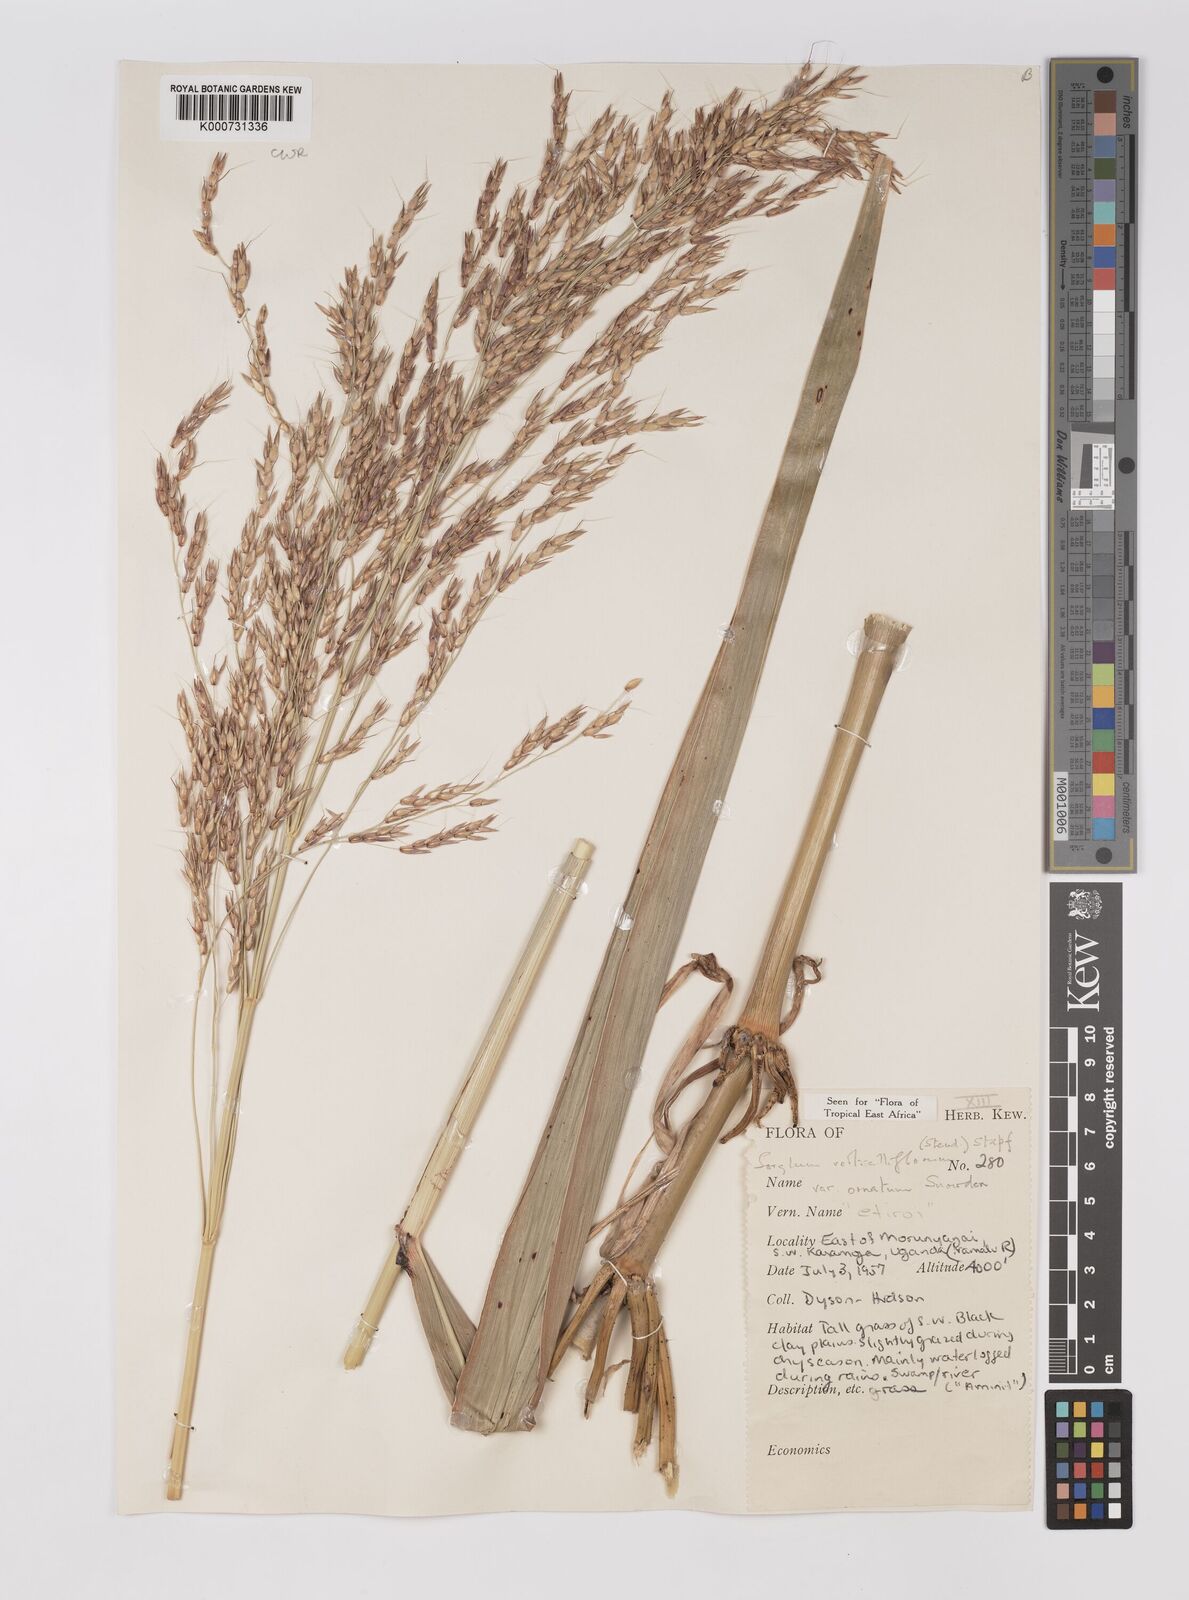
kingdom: Plantae
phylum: Tracheophyta
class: Liliopsida
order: Poales
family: Poaceae
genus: Sorghum
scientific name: Sorghum arundinaceum
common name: Sorghum
